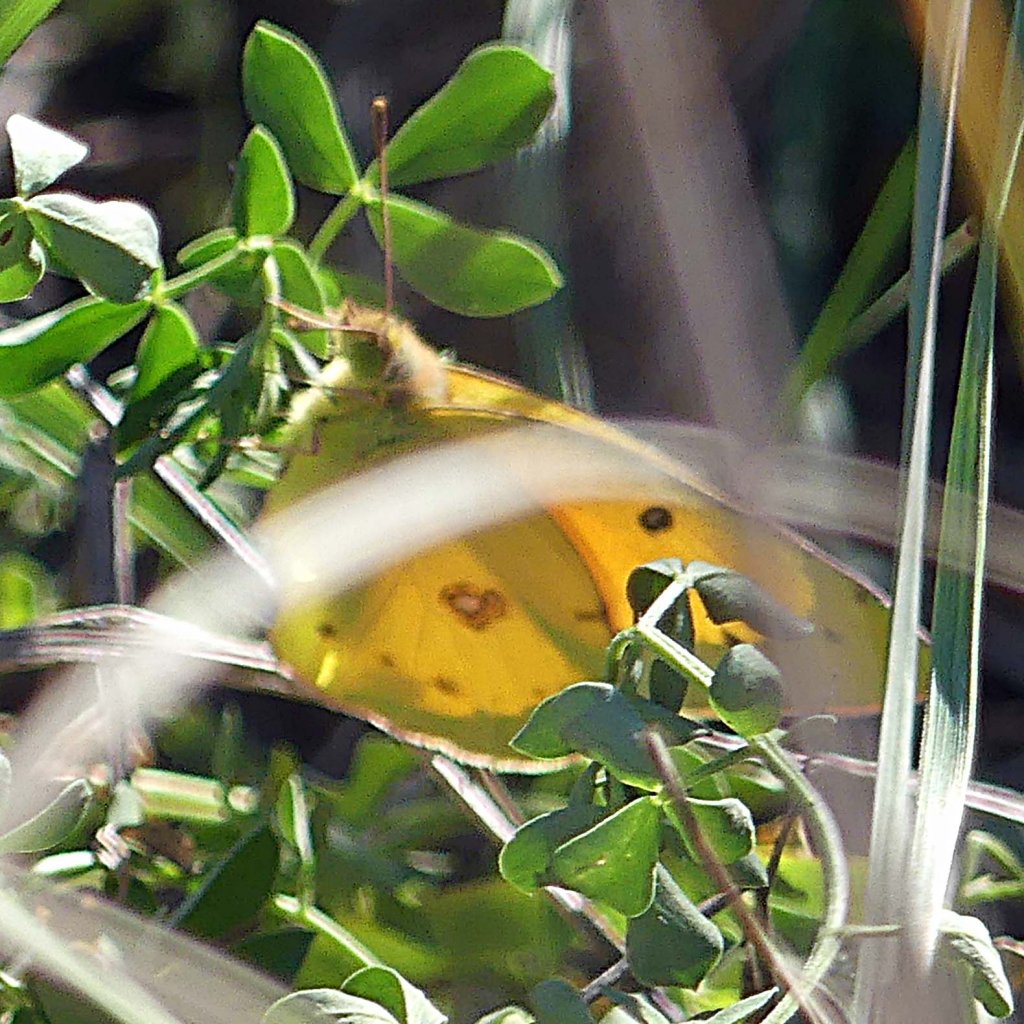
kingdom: Animalia
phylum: Arthropoda
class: Insecta
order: Lepidoptera
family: Pieridae
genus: Colias
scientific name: Colias eurytheme
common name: Orange Sulphur
